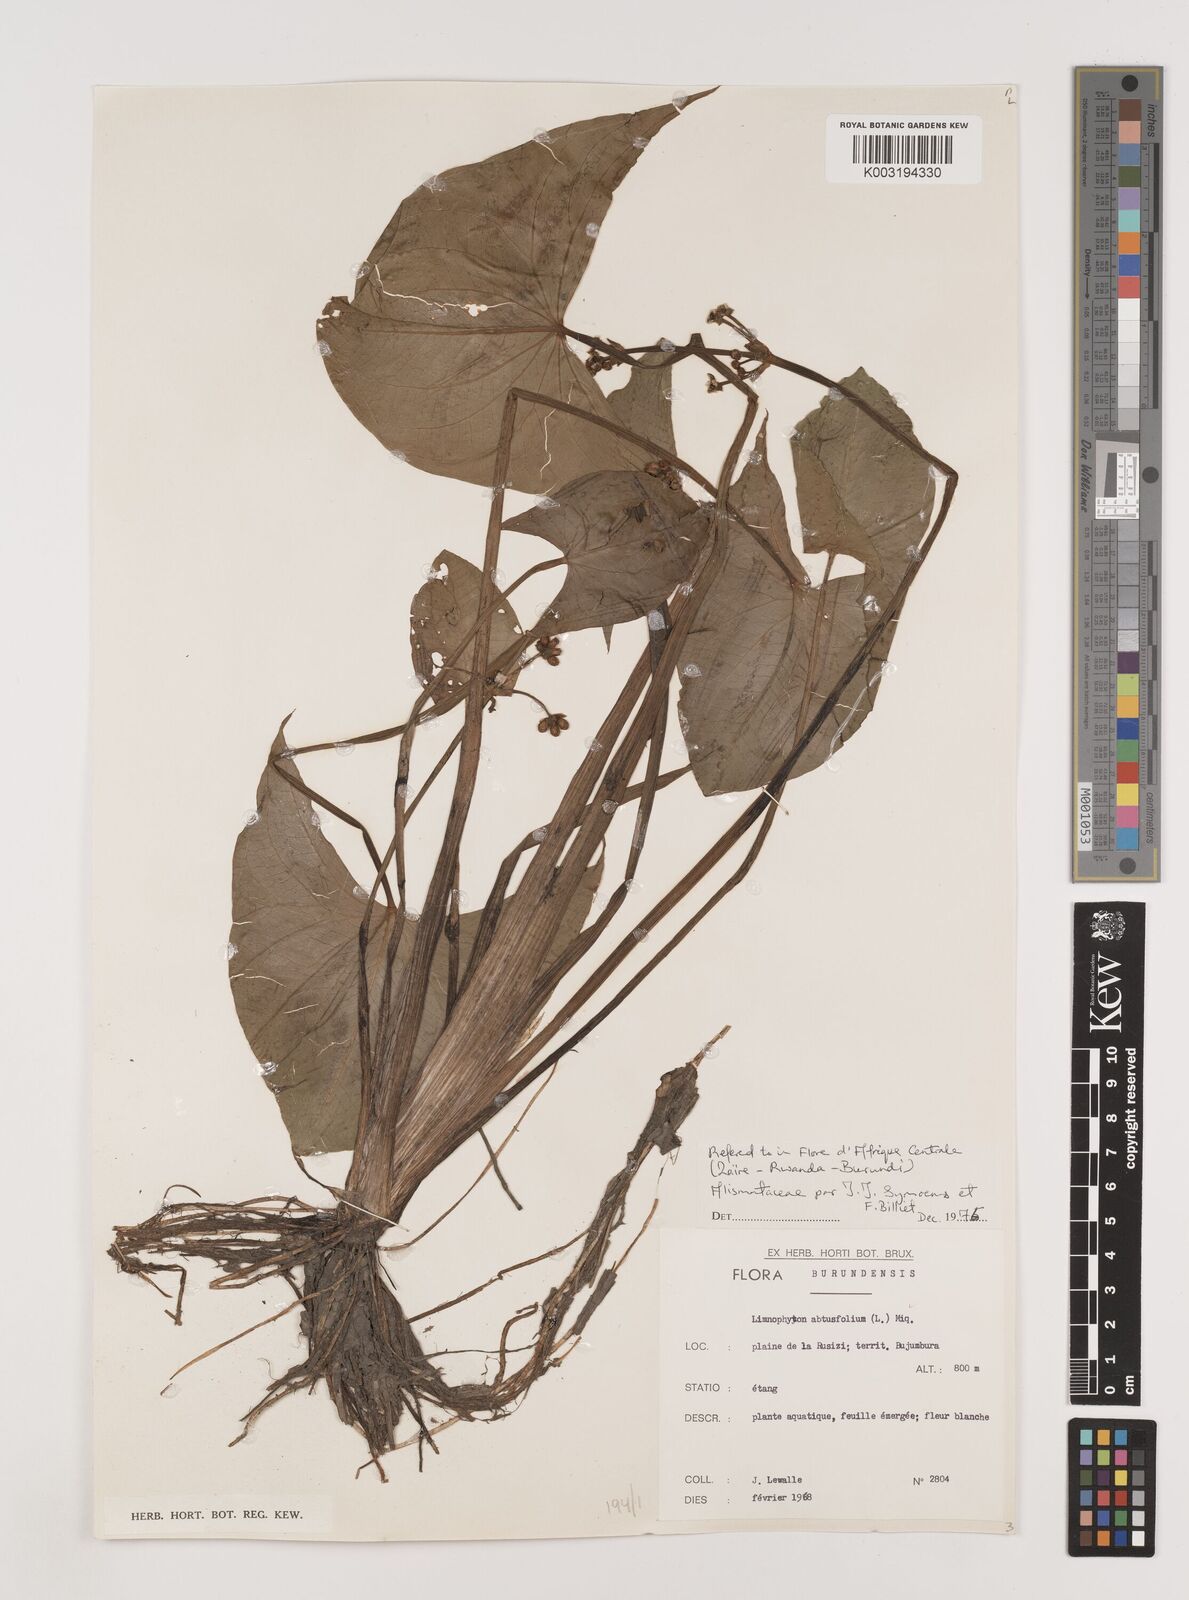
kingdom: Plantae
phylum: Tracheophyta
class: Liliopsida
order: Alismatales
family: Alismataceae
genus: Limnophyton
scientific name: Limnophyton obtusifolium
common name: Arrow head
